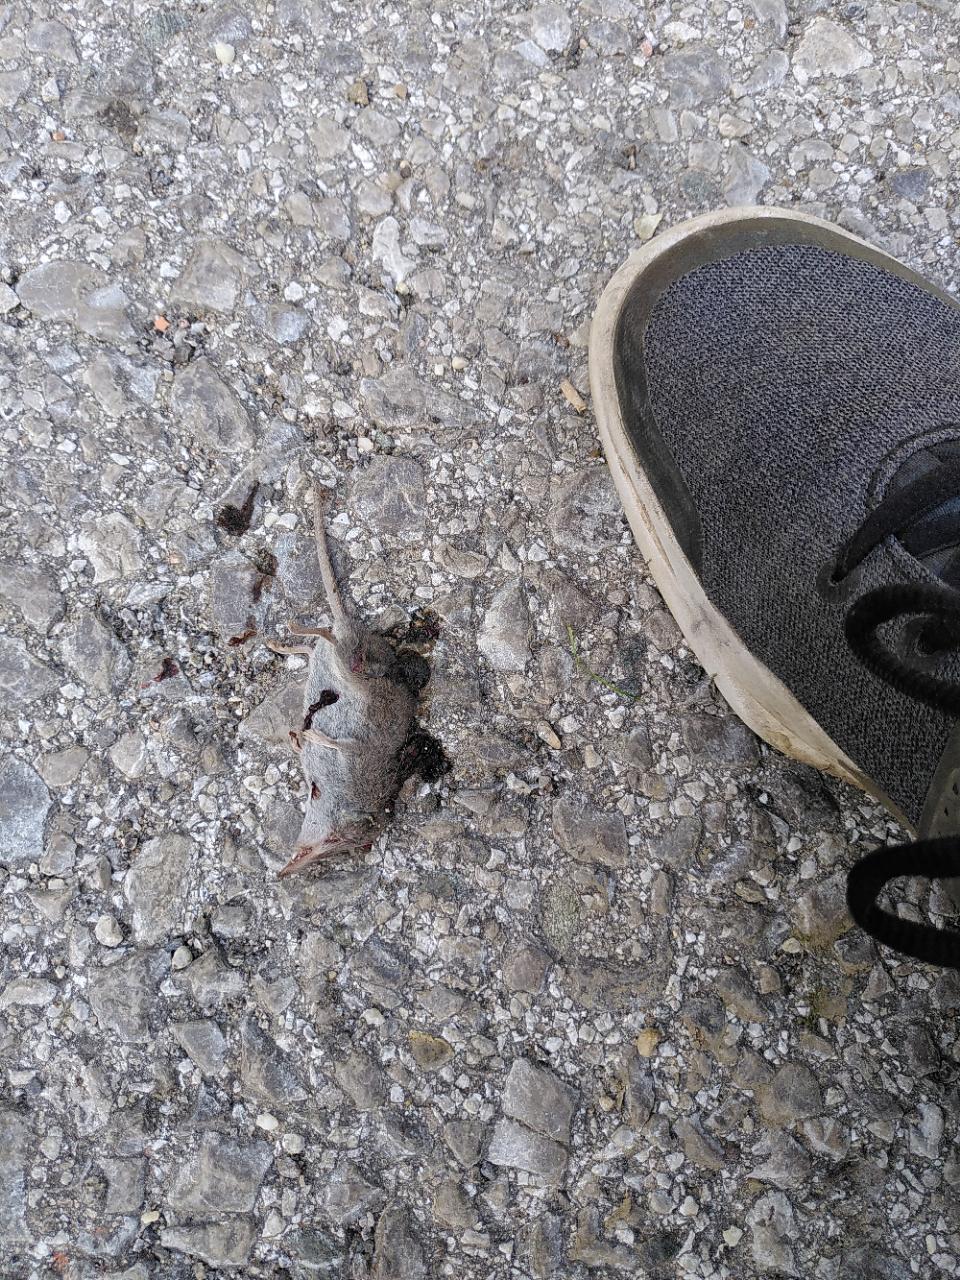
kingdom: Animalia
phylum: Chordata
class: Mammalia
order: Soricomorpha
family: Soricidae
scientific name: Soricidae
